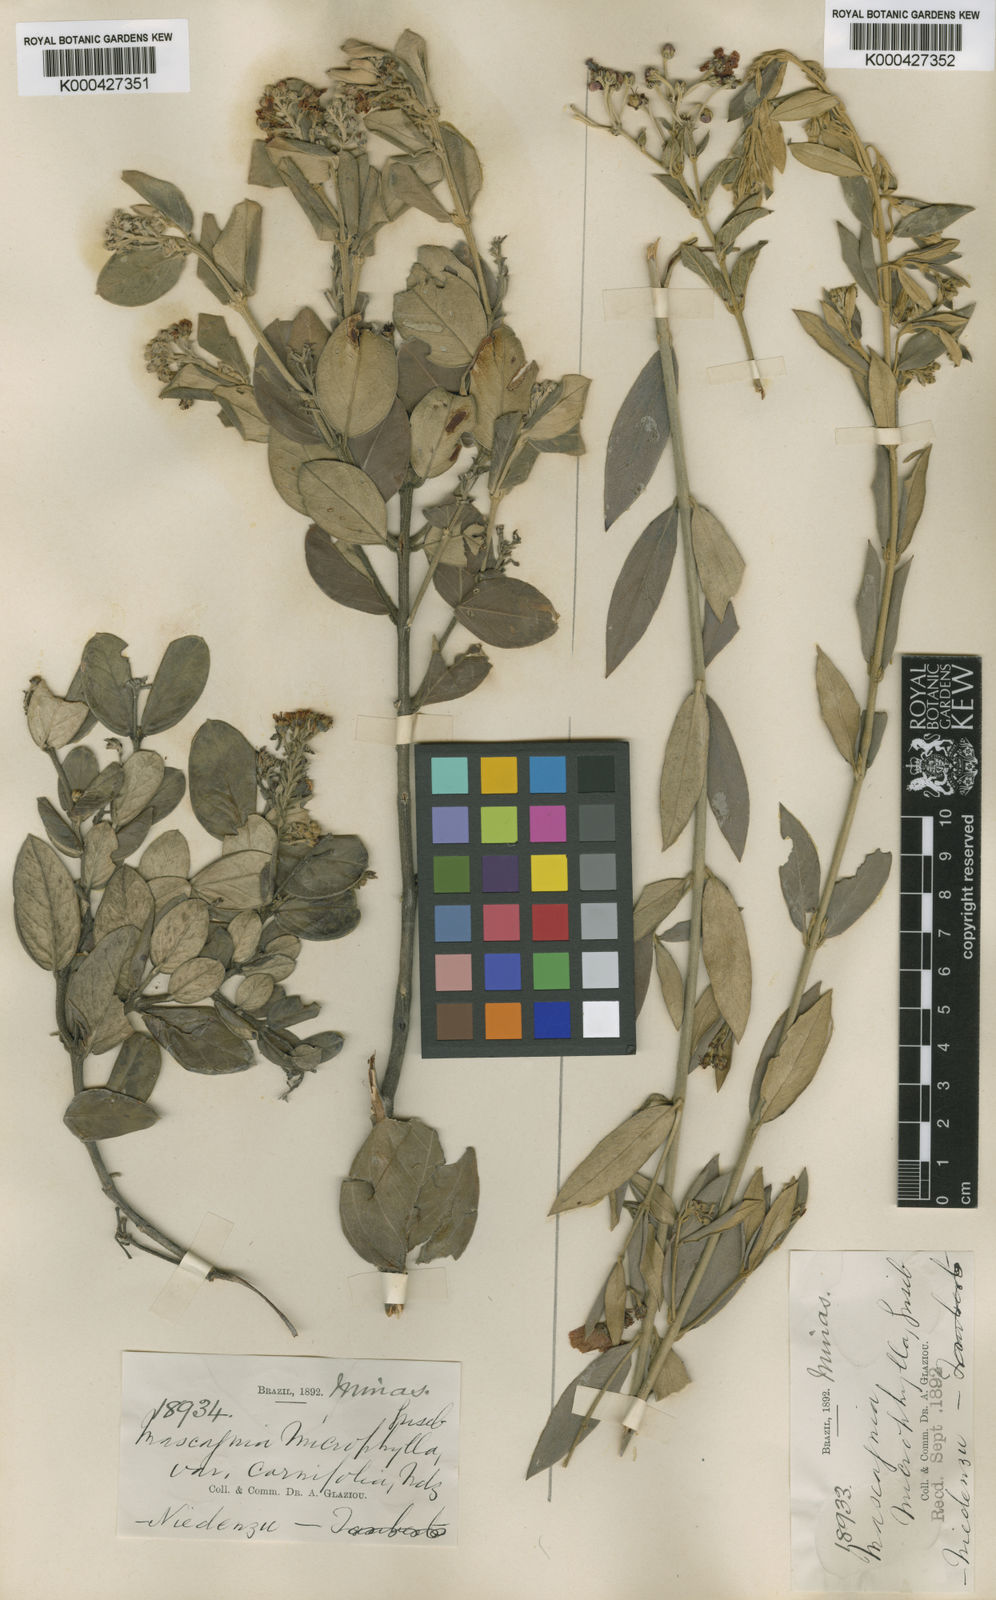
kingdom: Plantae
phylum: Tracheophyta
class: Magnoliopsida
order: Malpighiales
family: Malpighiaceae
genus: Glicophyllum
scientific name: Glicophyllum microphyllum
